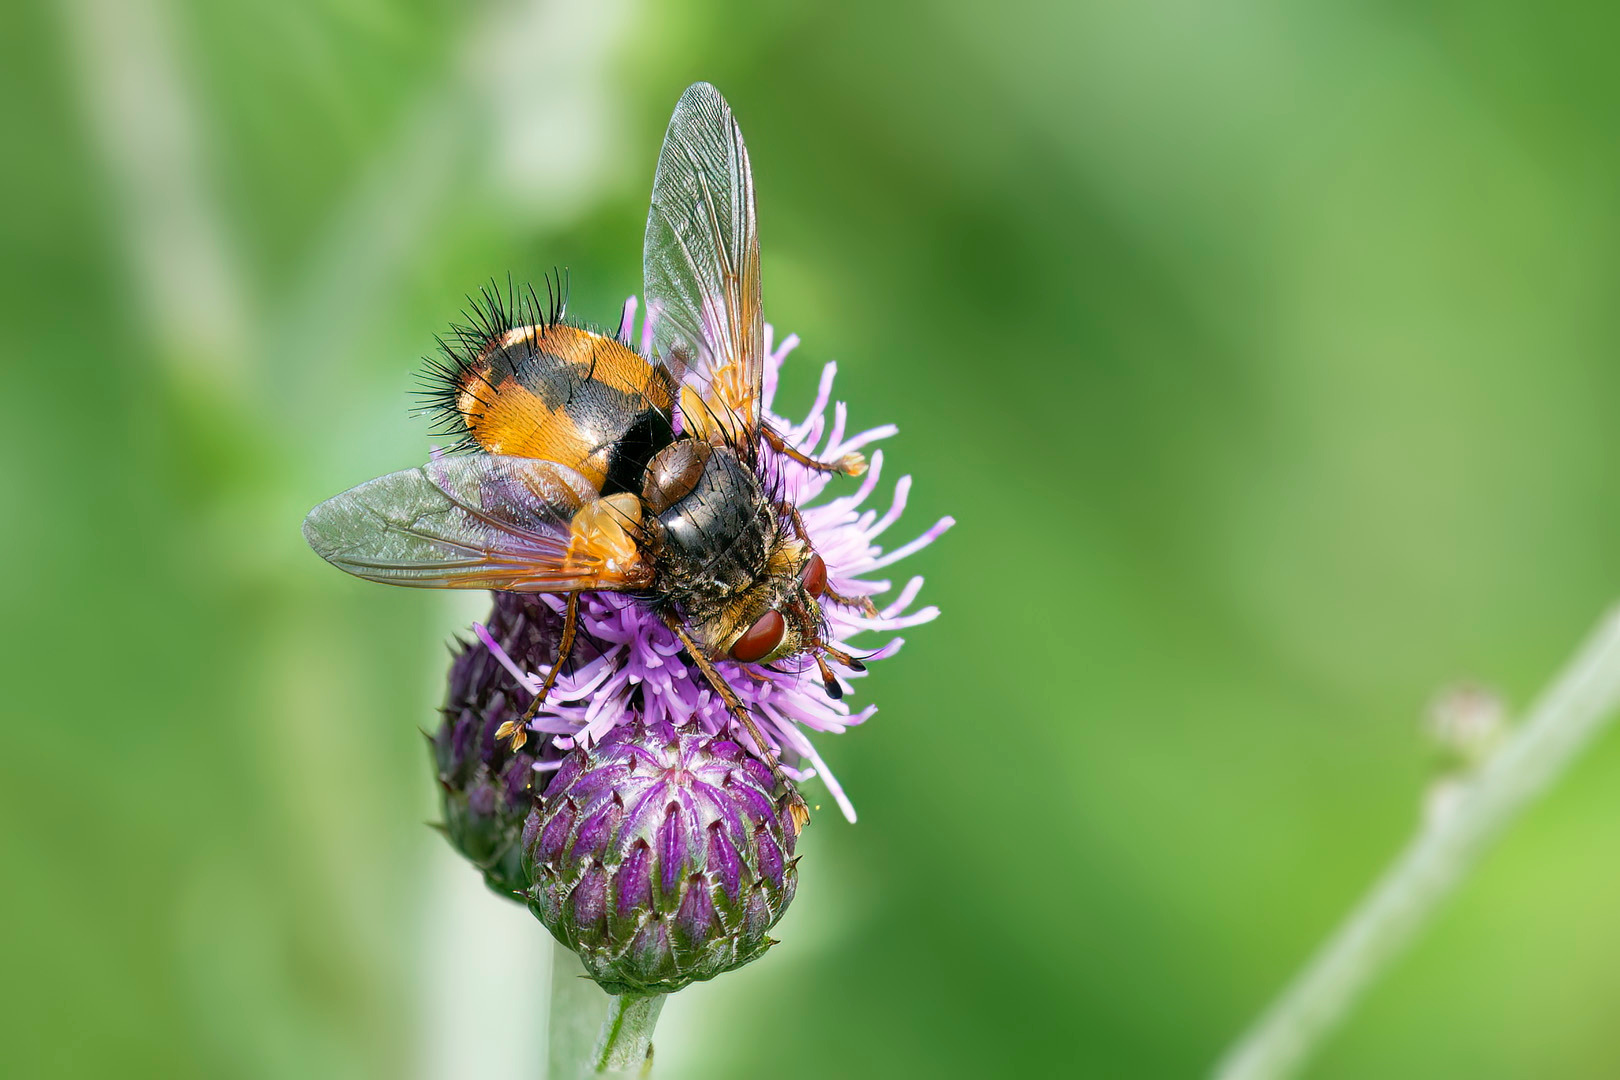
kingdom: Animalia
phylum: Arthropoda
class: Insecta
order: Diptera
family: Tachinidae
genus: Tachina
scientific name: Tachina fera
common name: Mellemfluen oskar
